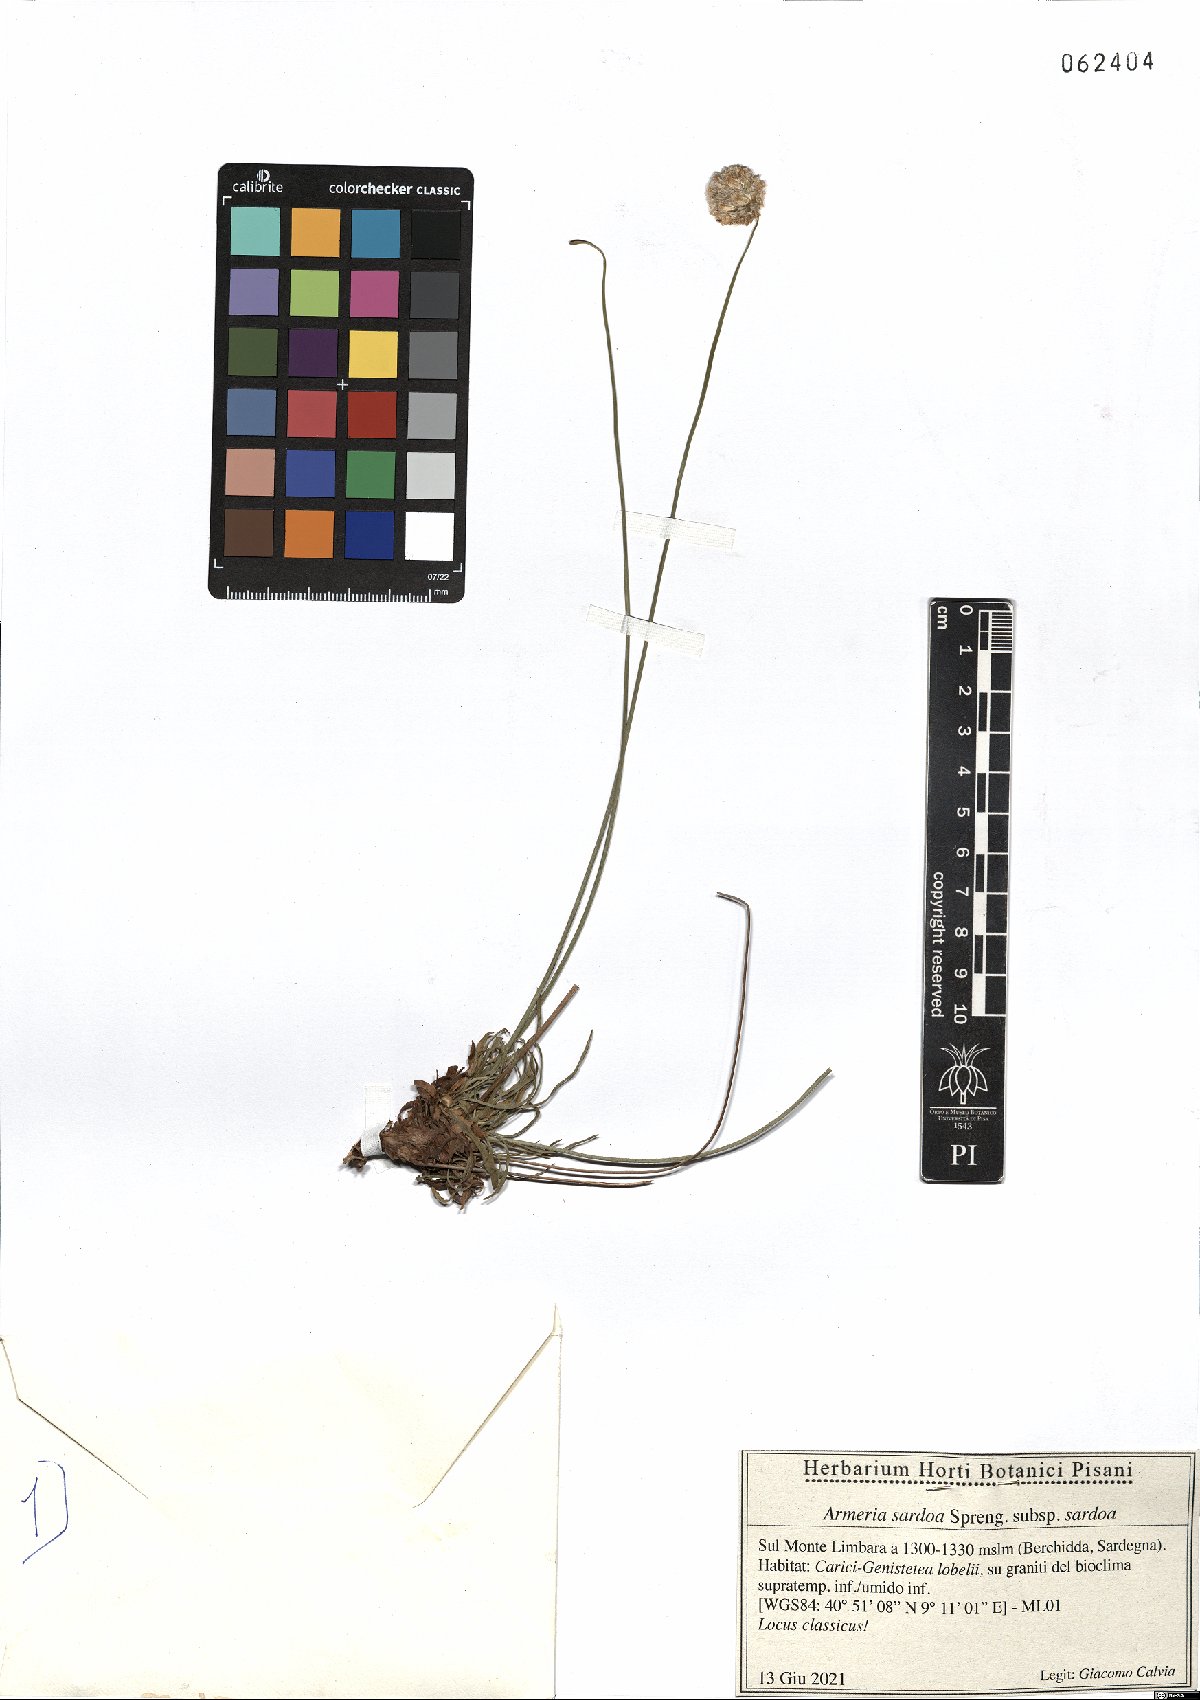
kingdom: Plantae
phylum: Tracheophyta
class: Magnoliopsida
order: Caryophyllales
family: Plumbaginaceae
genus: Armeria
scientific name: Armeria sardoa
